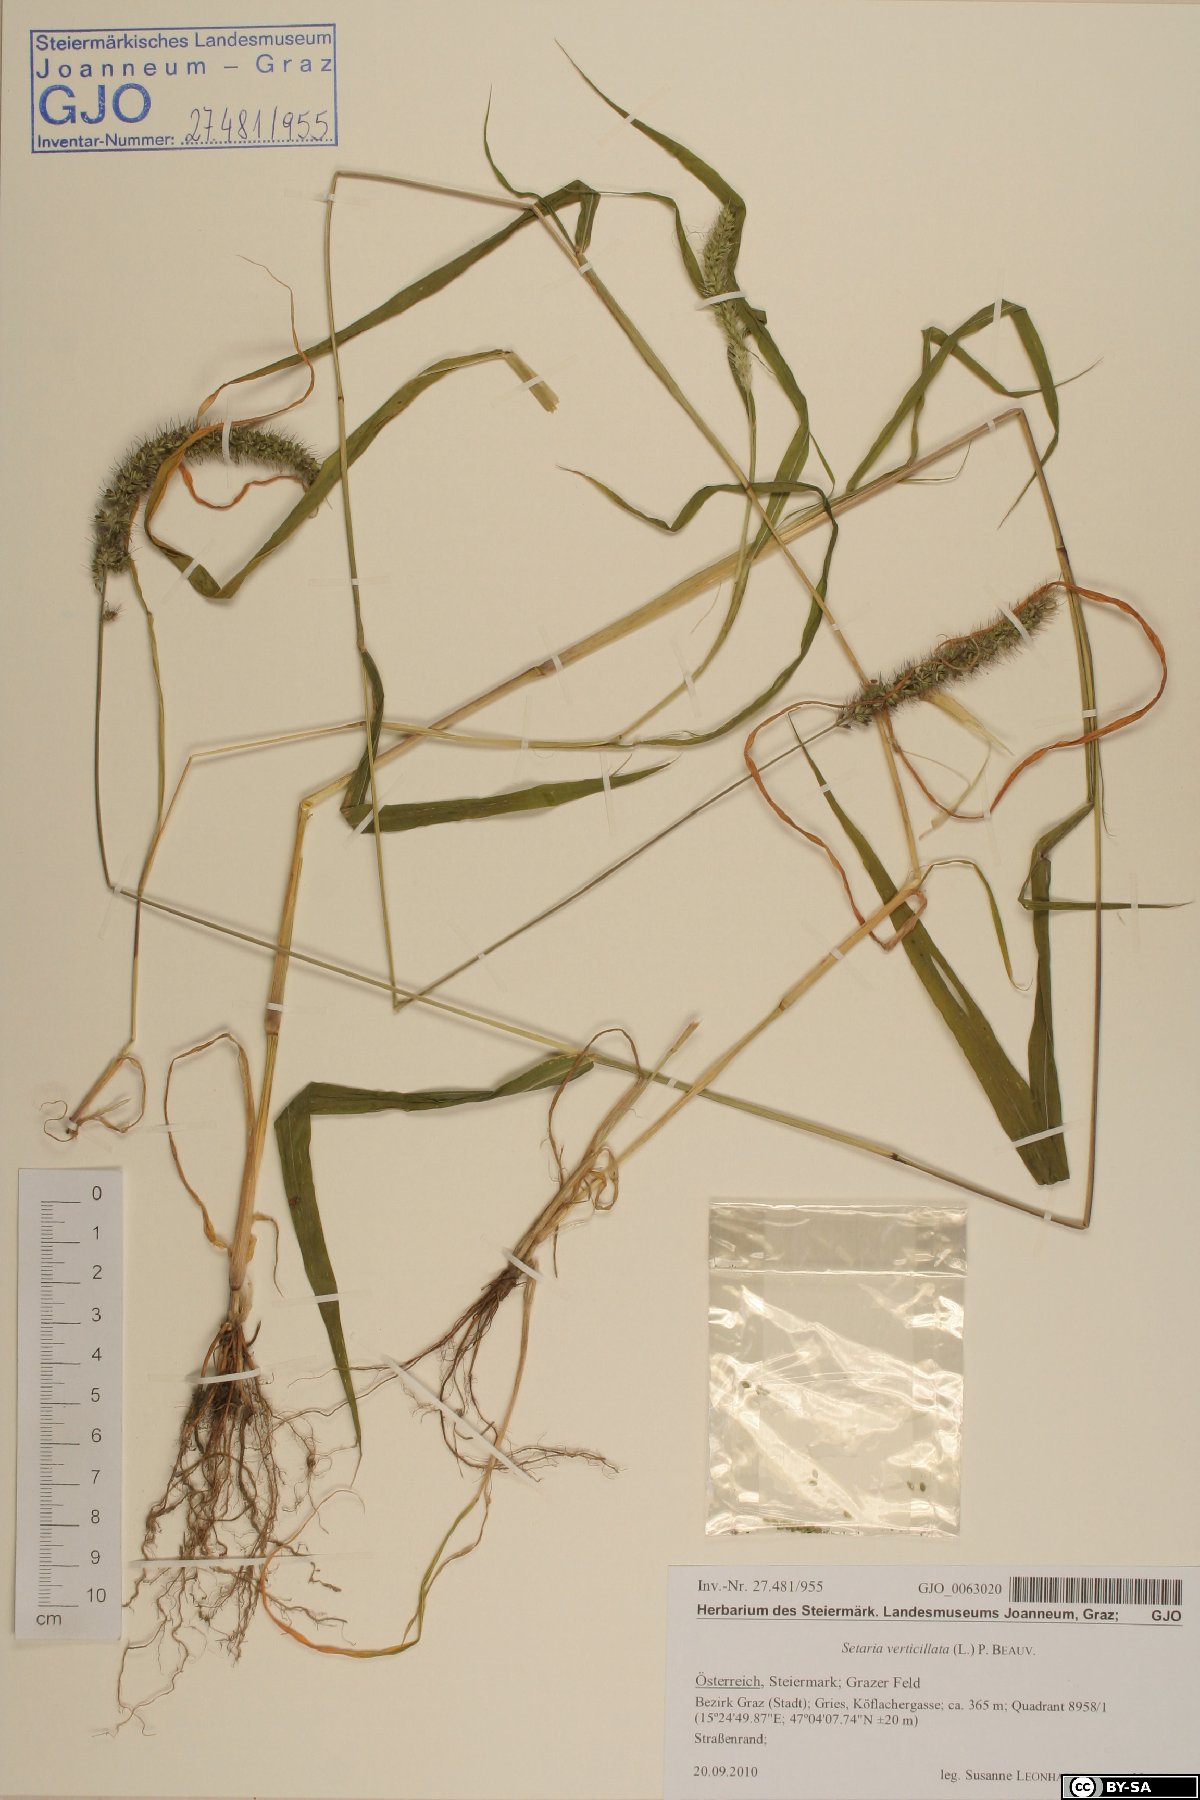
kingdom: Plantae
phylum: Tracheophyta
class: Liliopsida
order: Poales
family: Poaceae
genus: Setaria
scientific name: Setaria verticillata
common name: Hooked bristlegrass
